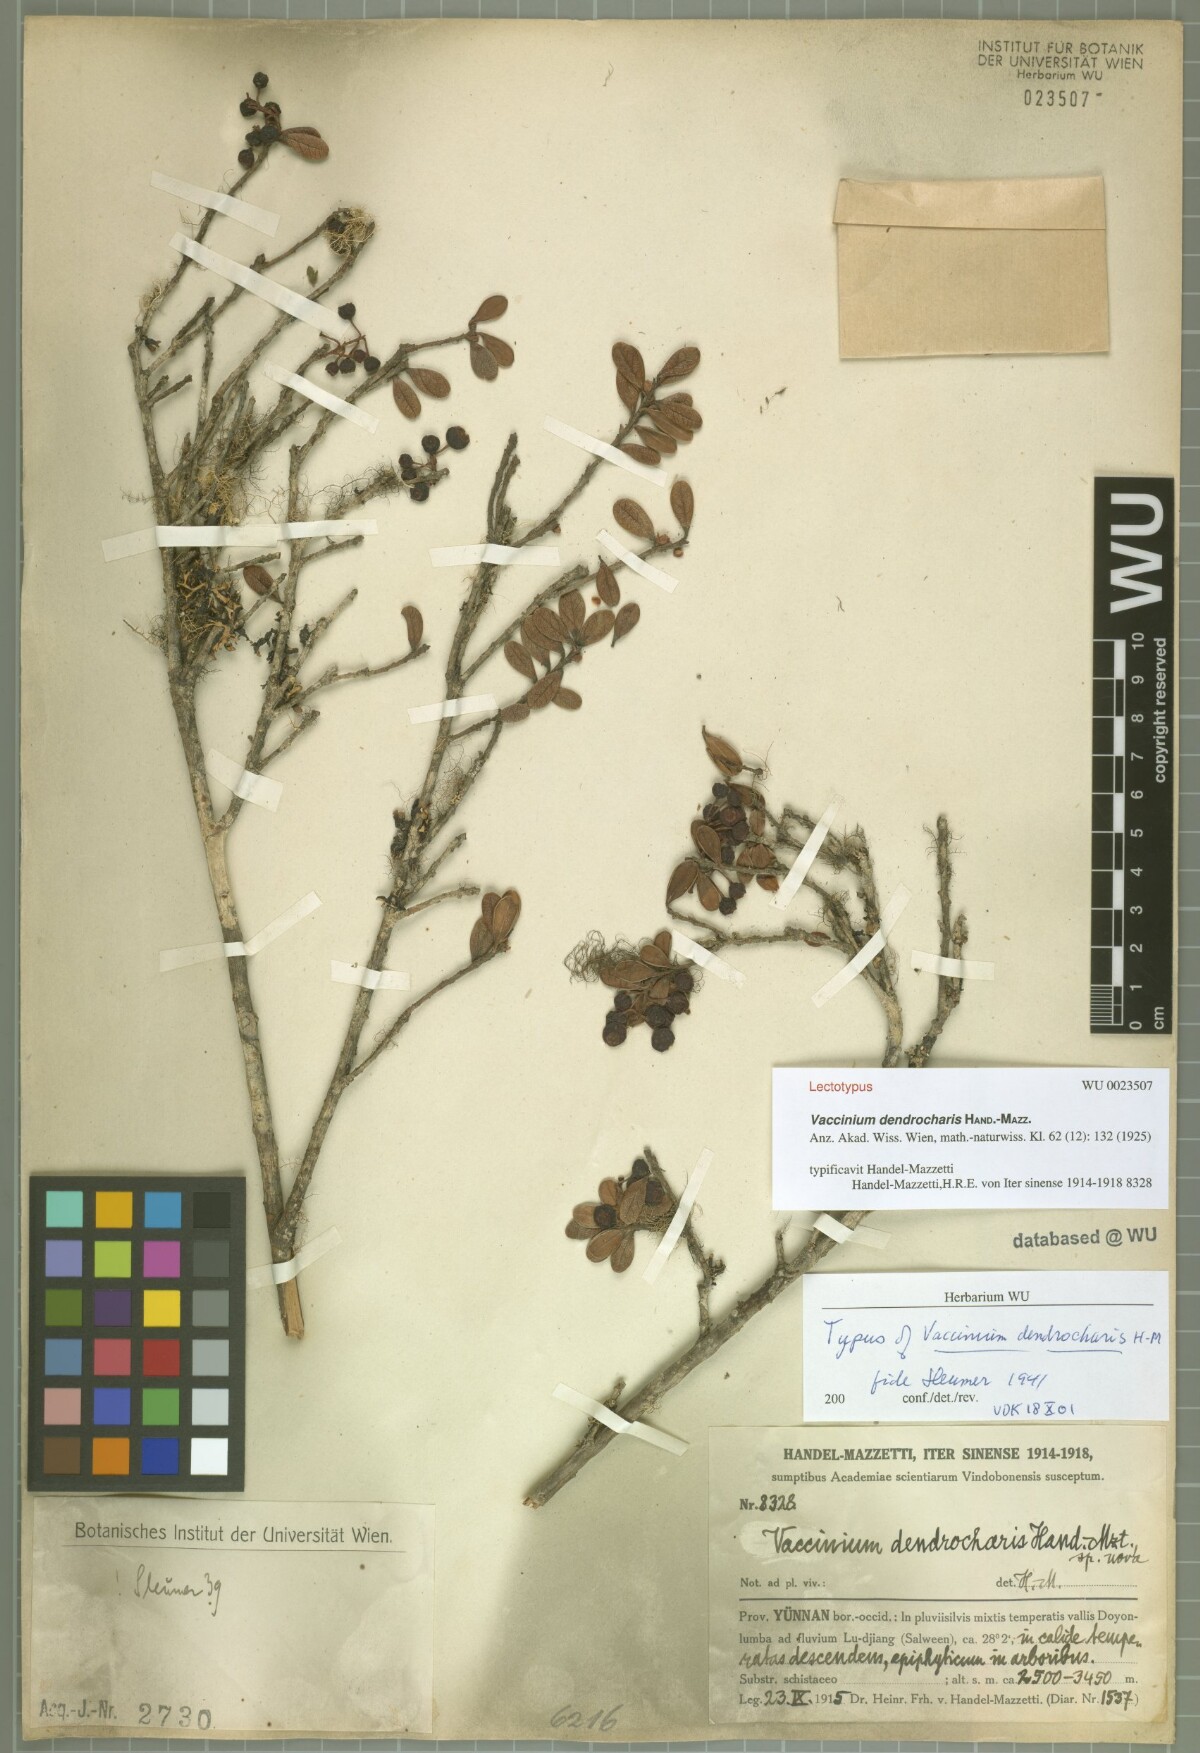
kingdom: Plantae
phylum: Tracheophyta
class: Magnoliopsida
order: Ericales
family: Ericaceae
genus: Vaccinium
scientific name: Vaccinium dendrocharis
